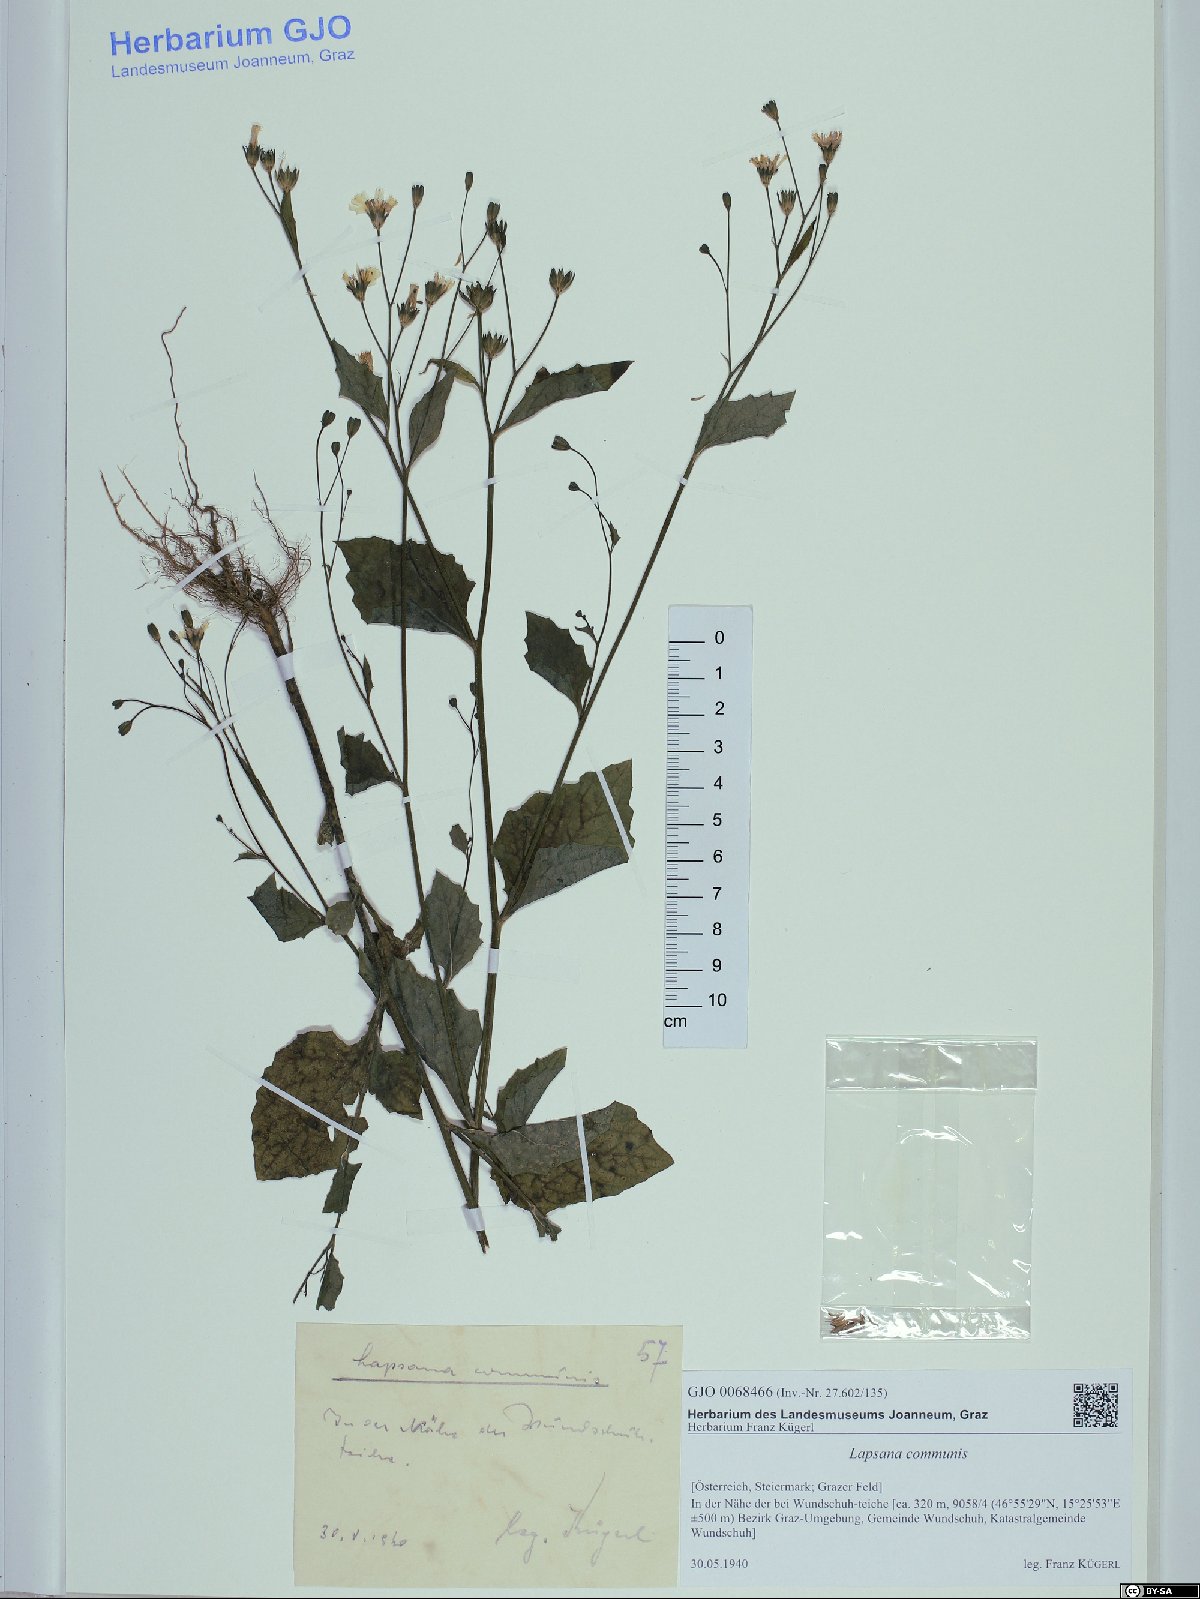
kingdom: Plantae
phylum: Tracheophyta
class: Magnoliopsida
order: Asterales
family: Asteraceae
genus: Lapsana
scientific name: Lapsana communis
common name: Nipplewort
